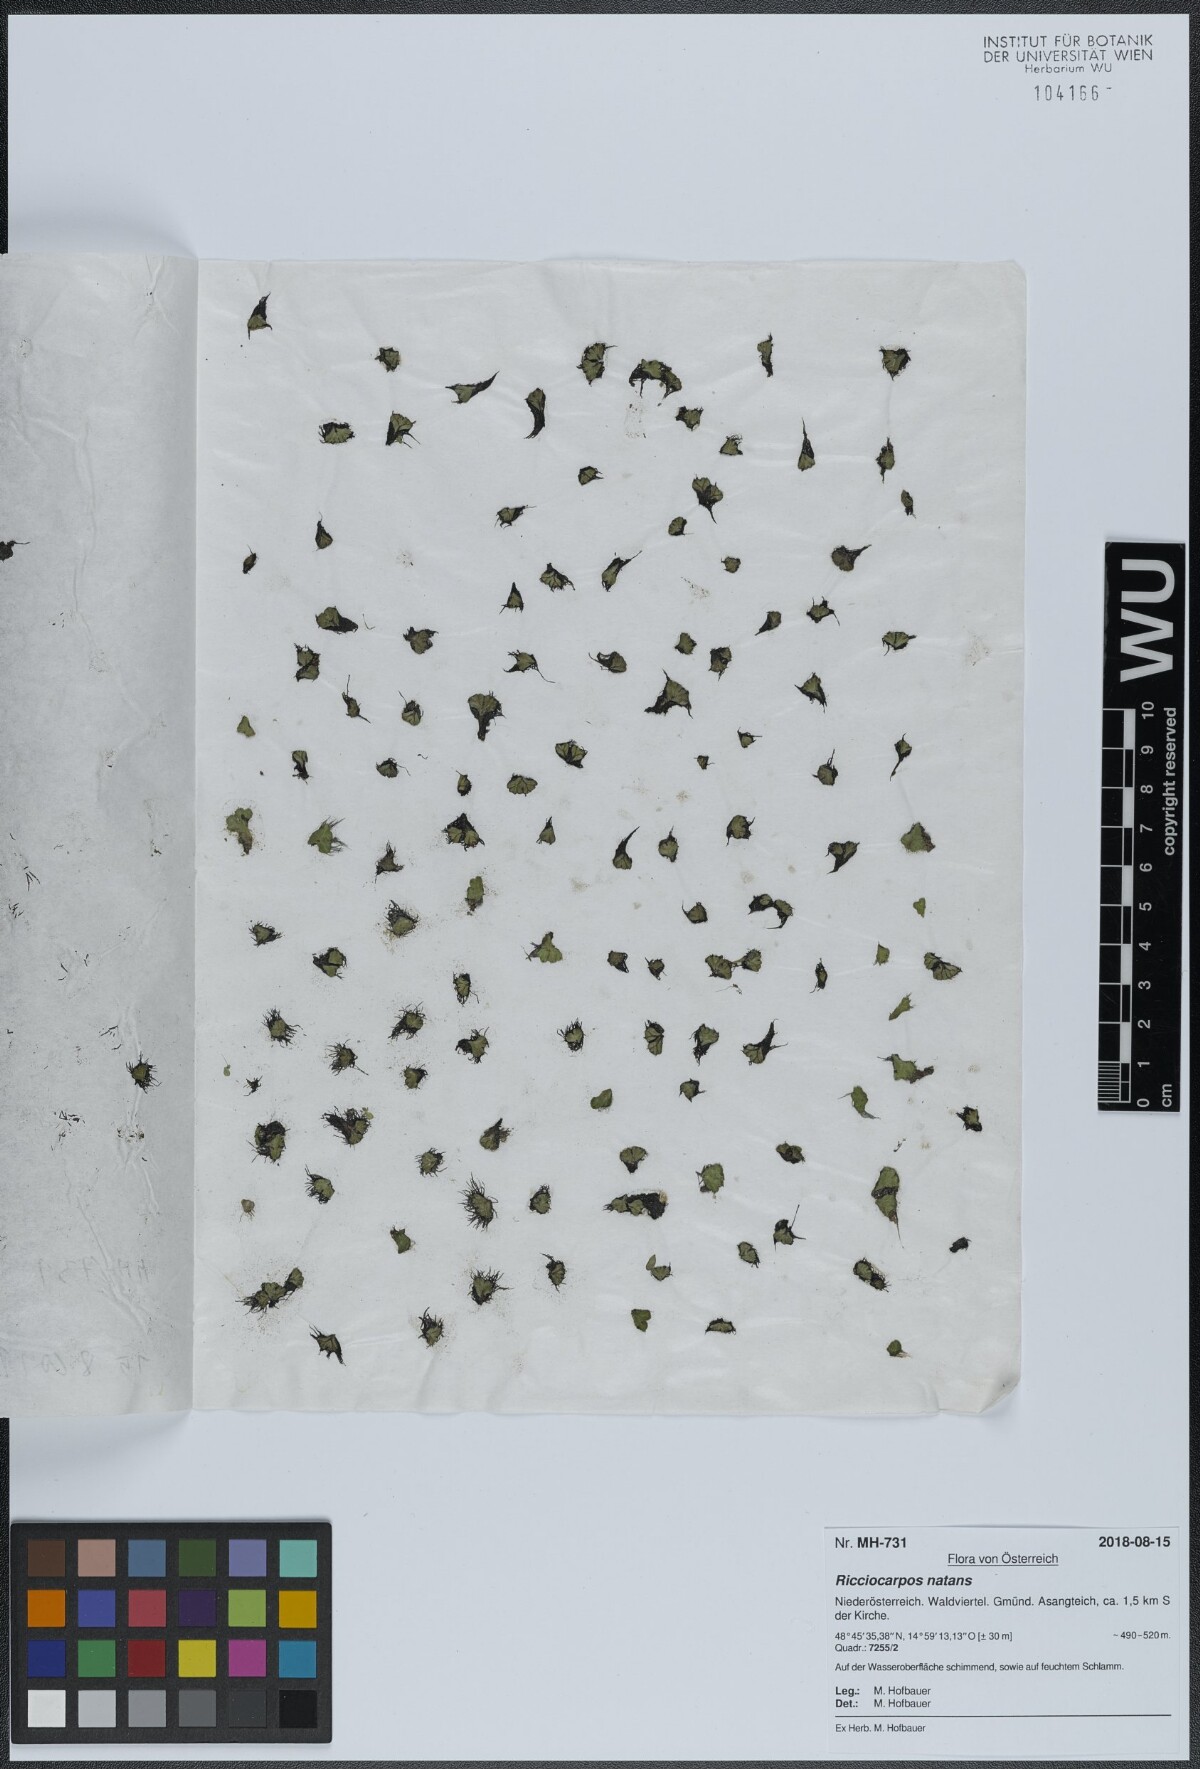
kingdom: Plantae
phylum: Marchantiophyta
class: Marchantiopsida
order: Marchantiales
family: Ricciaceae
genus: Ricciocarpos
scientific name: Ricciocarpos natans
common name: Purple-fringed liverwort
